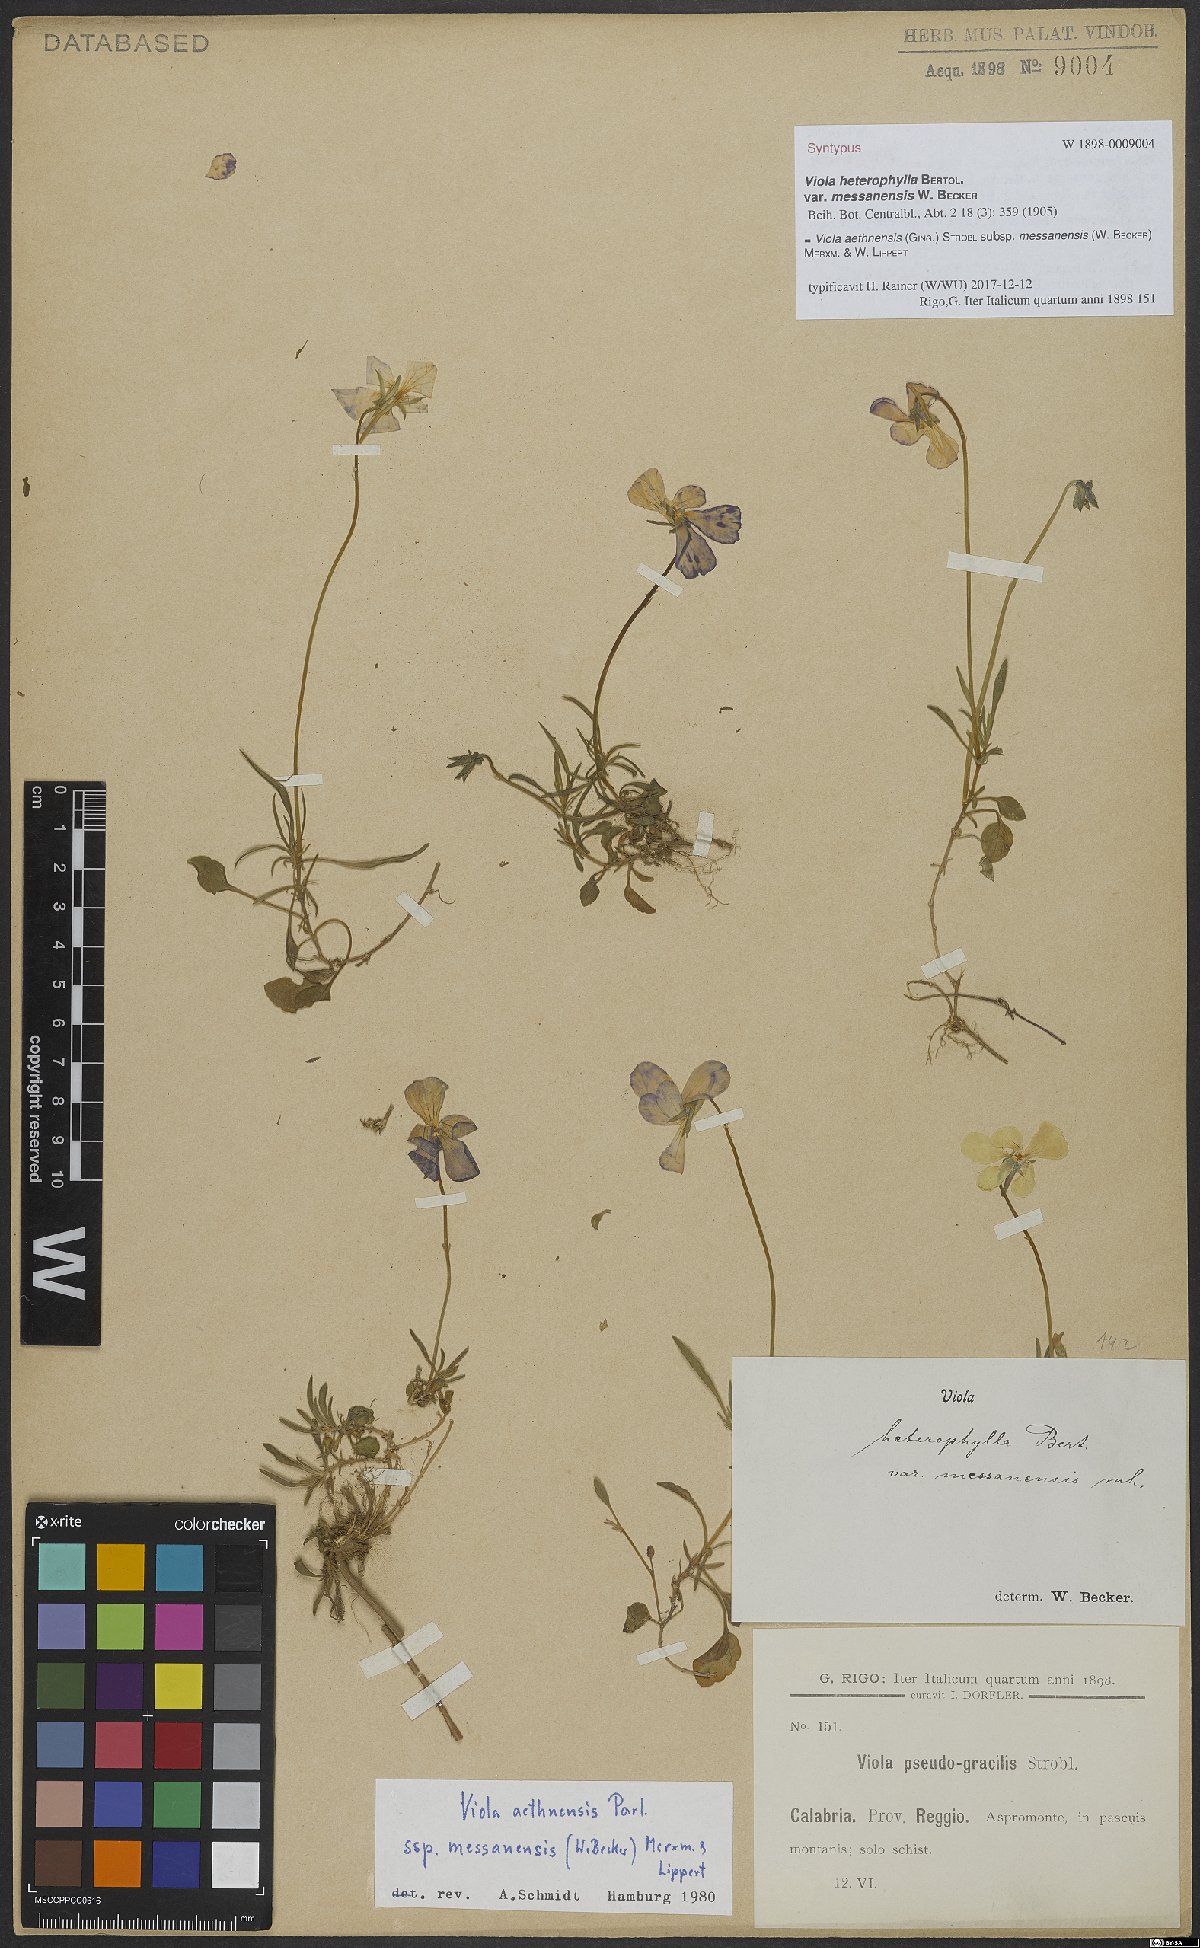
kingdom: Plantae
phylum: Tracheophyta
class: Magnoliopsida
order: Malpighiales
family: Violaceae
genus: Viola
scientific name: Viola aethnensis
